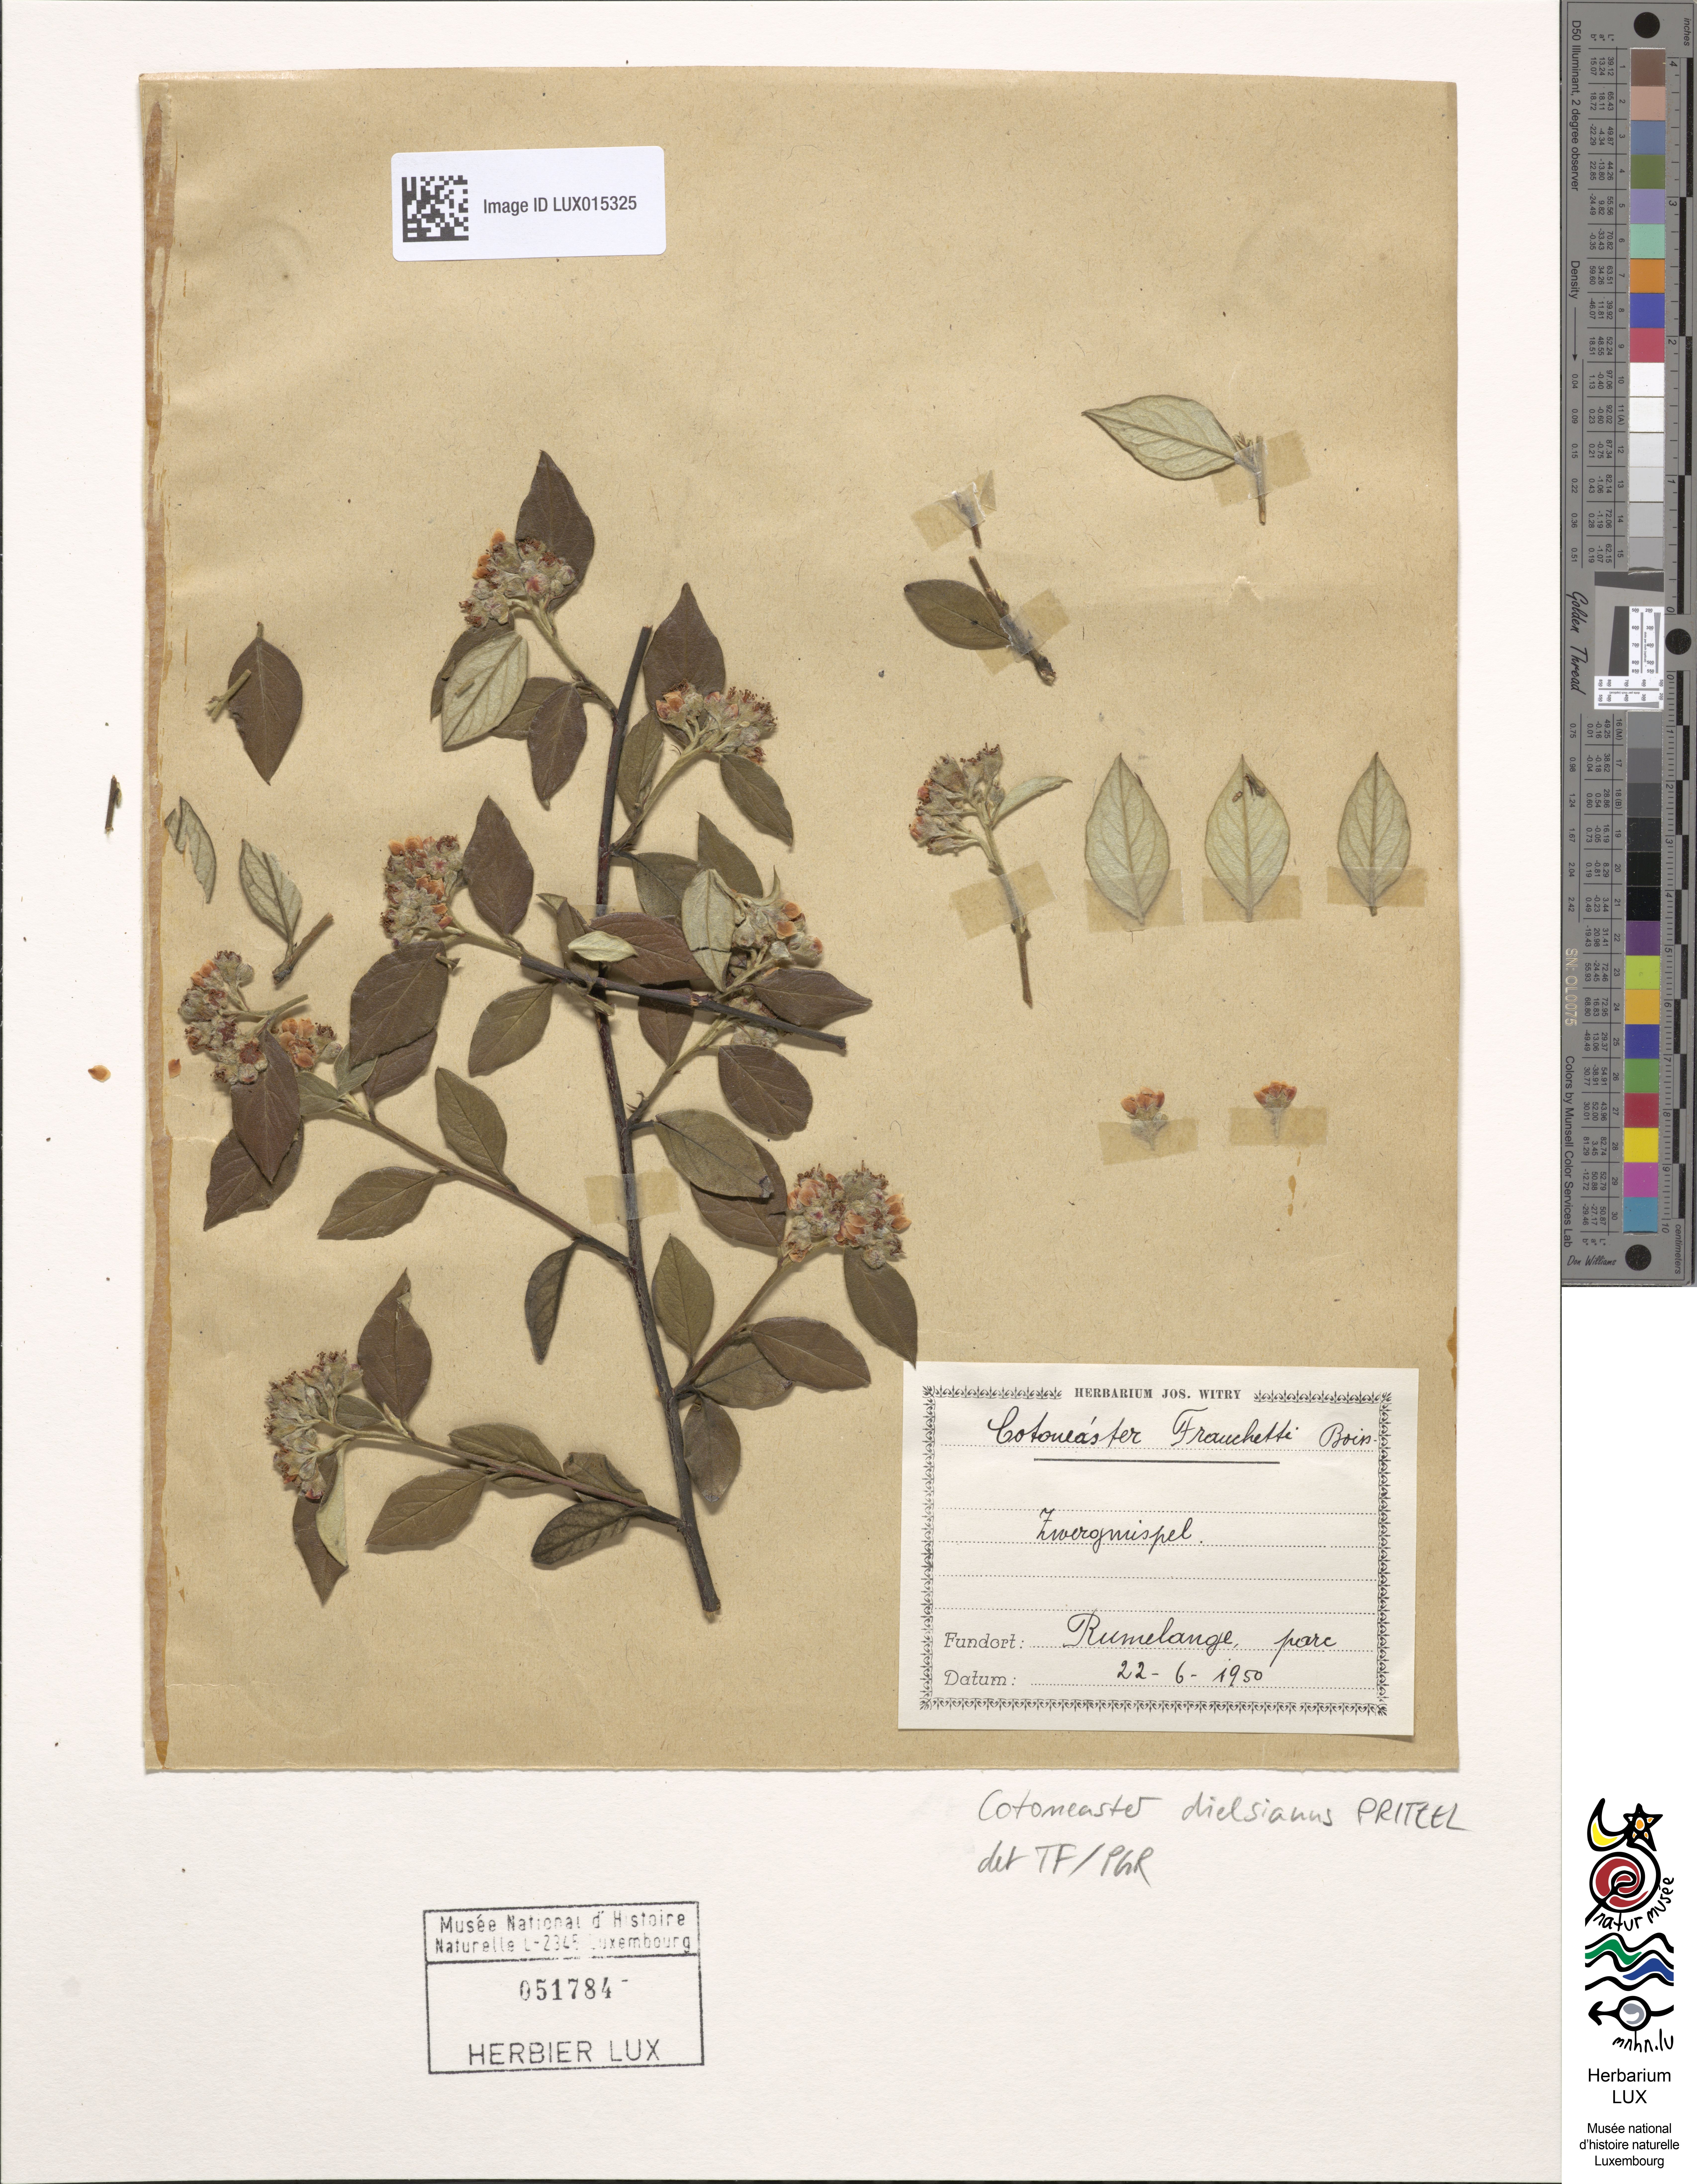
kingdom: Plantae
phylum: Tracheophyta
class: Magnoliopsida
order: Rosales
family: Rosaceae
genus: Cotoneaster
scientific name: Cotoneaster dielsianus
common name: Diels's cotoneaster
